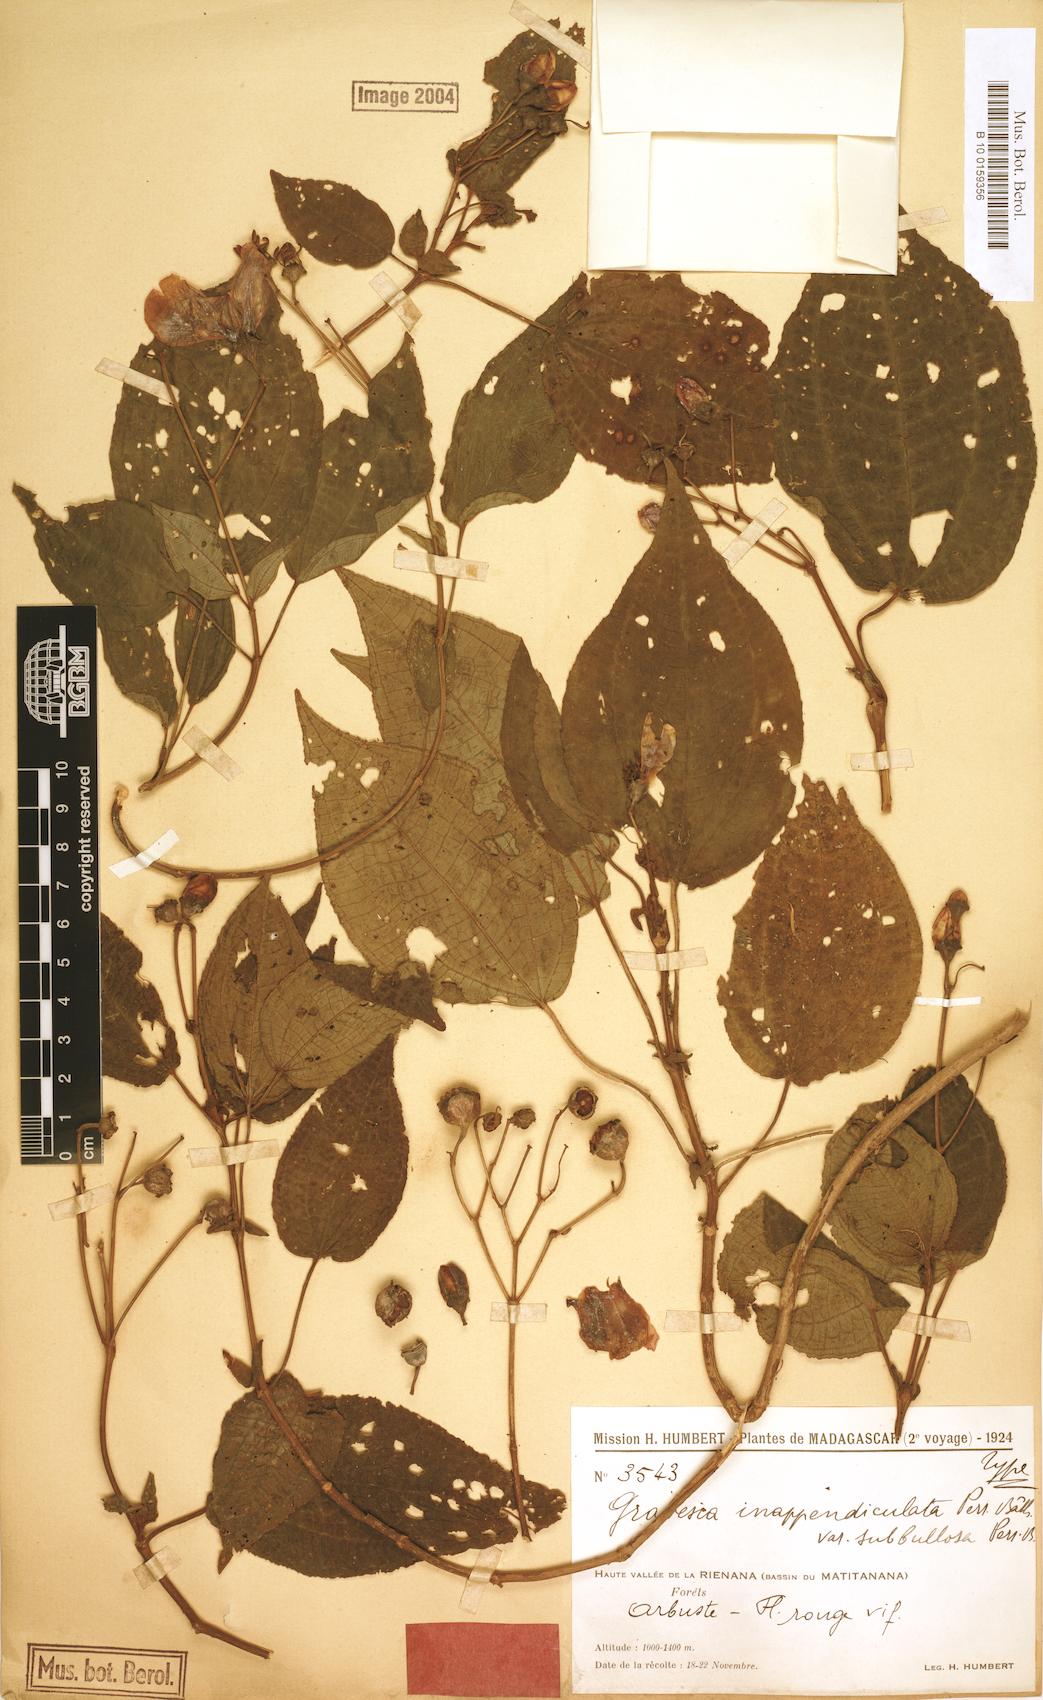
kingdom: Plantae
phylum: Tracheophyta
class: Magnoliopsida
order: Myrtales
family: Melastomataceae
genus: Gravesia
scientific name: Gravesia inappendiculata
